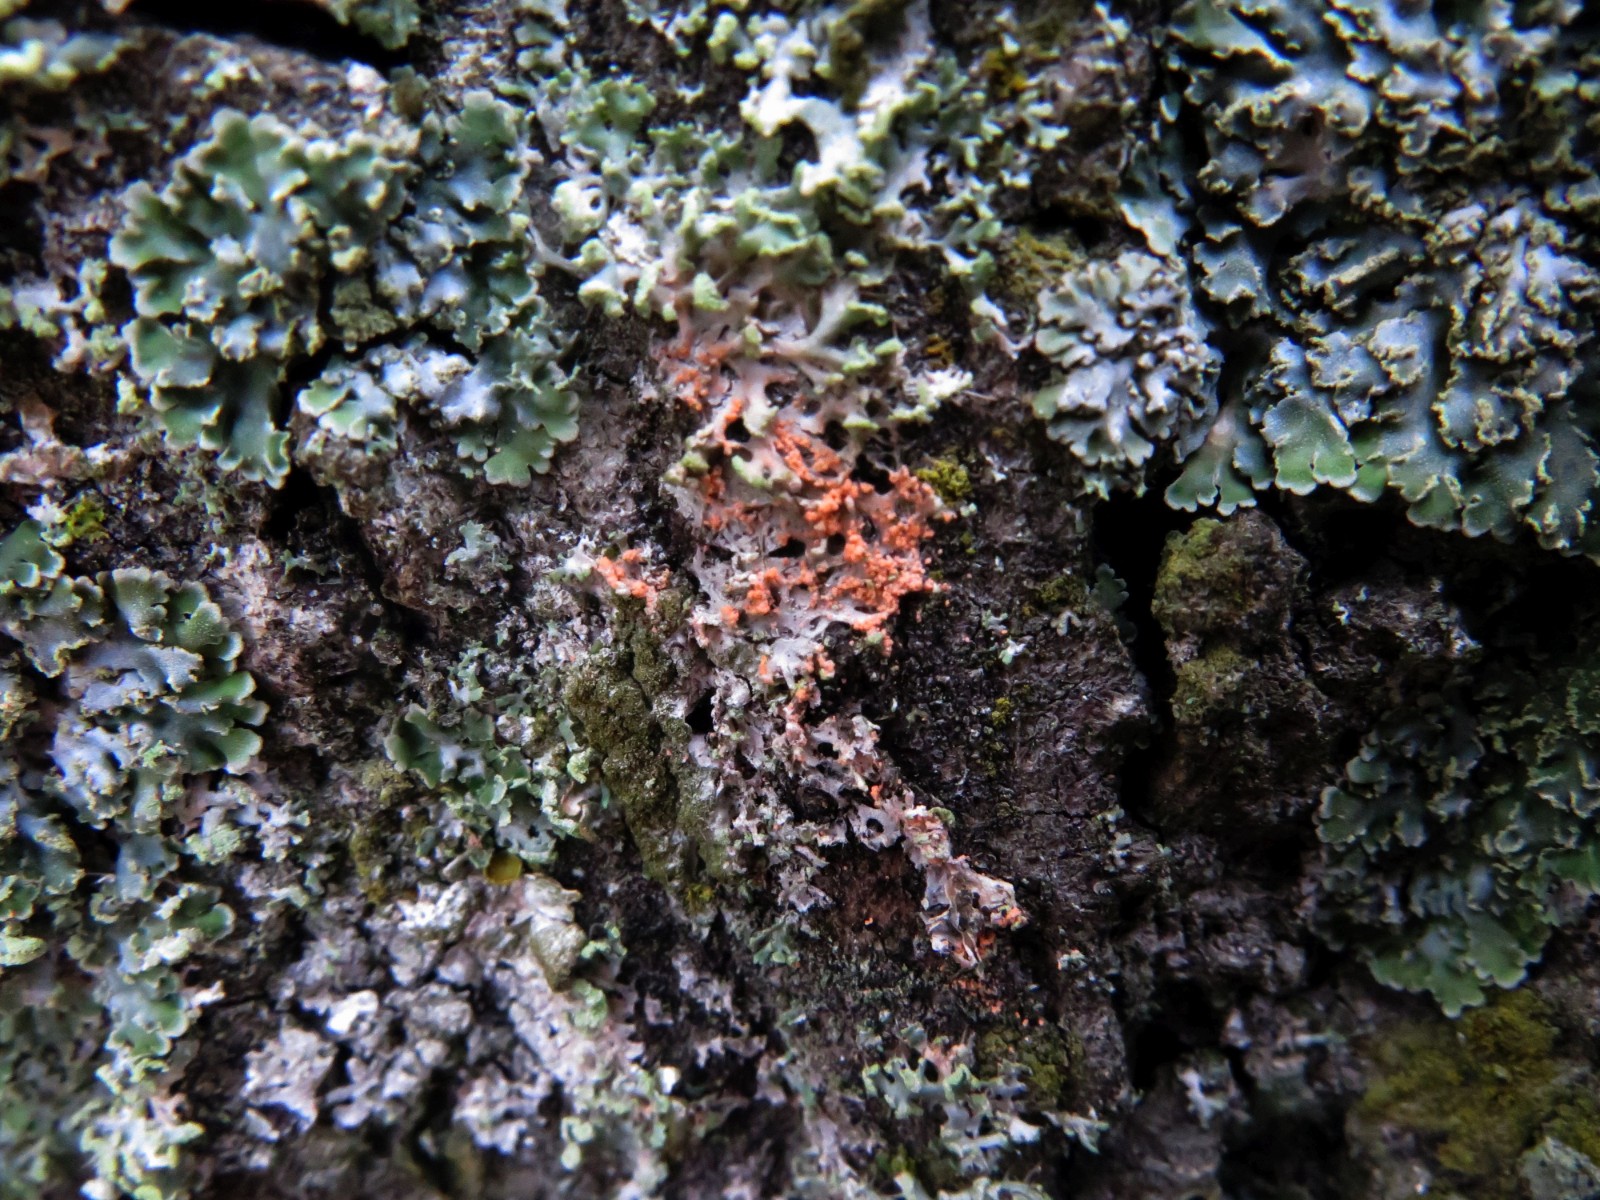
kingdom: Fungi
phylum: Basidiomycota
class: Agaricomycetes
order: Corticiales
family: Corticiaceae
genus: Erythricium
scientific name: Erythricium aurantiacum
